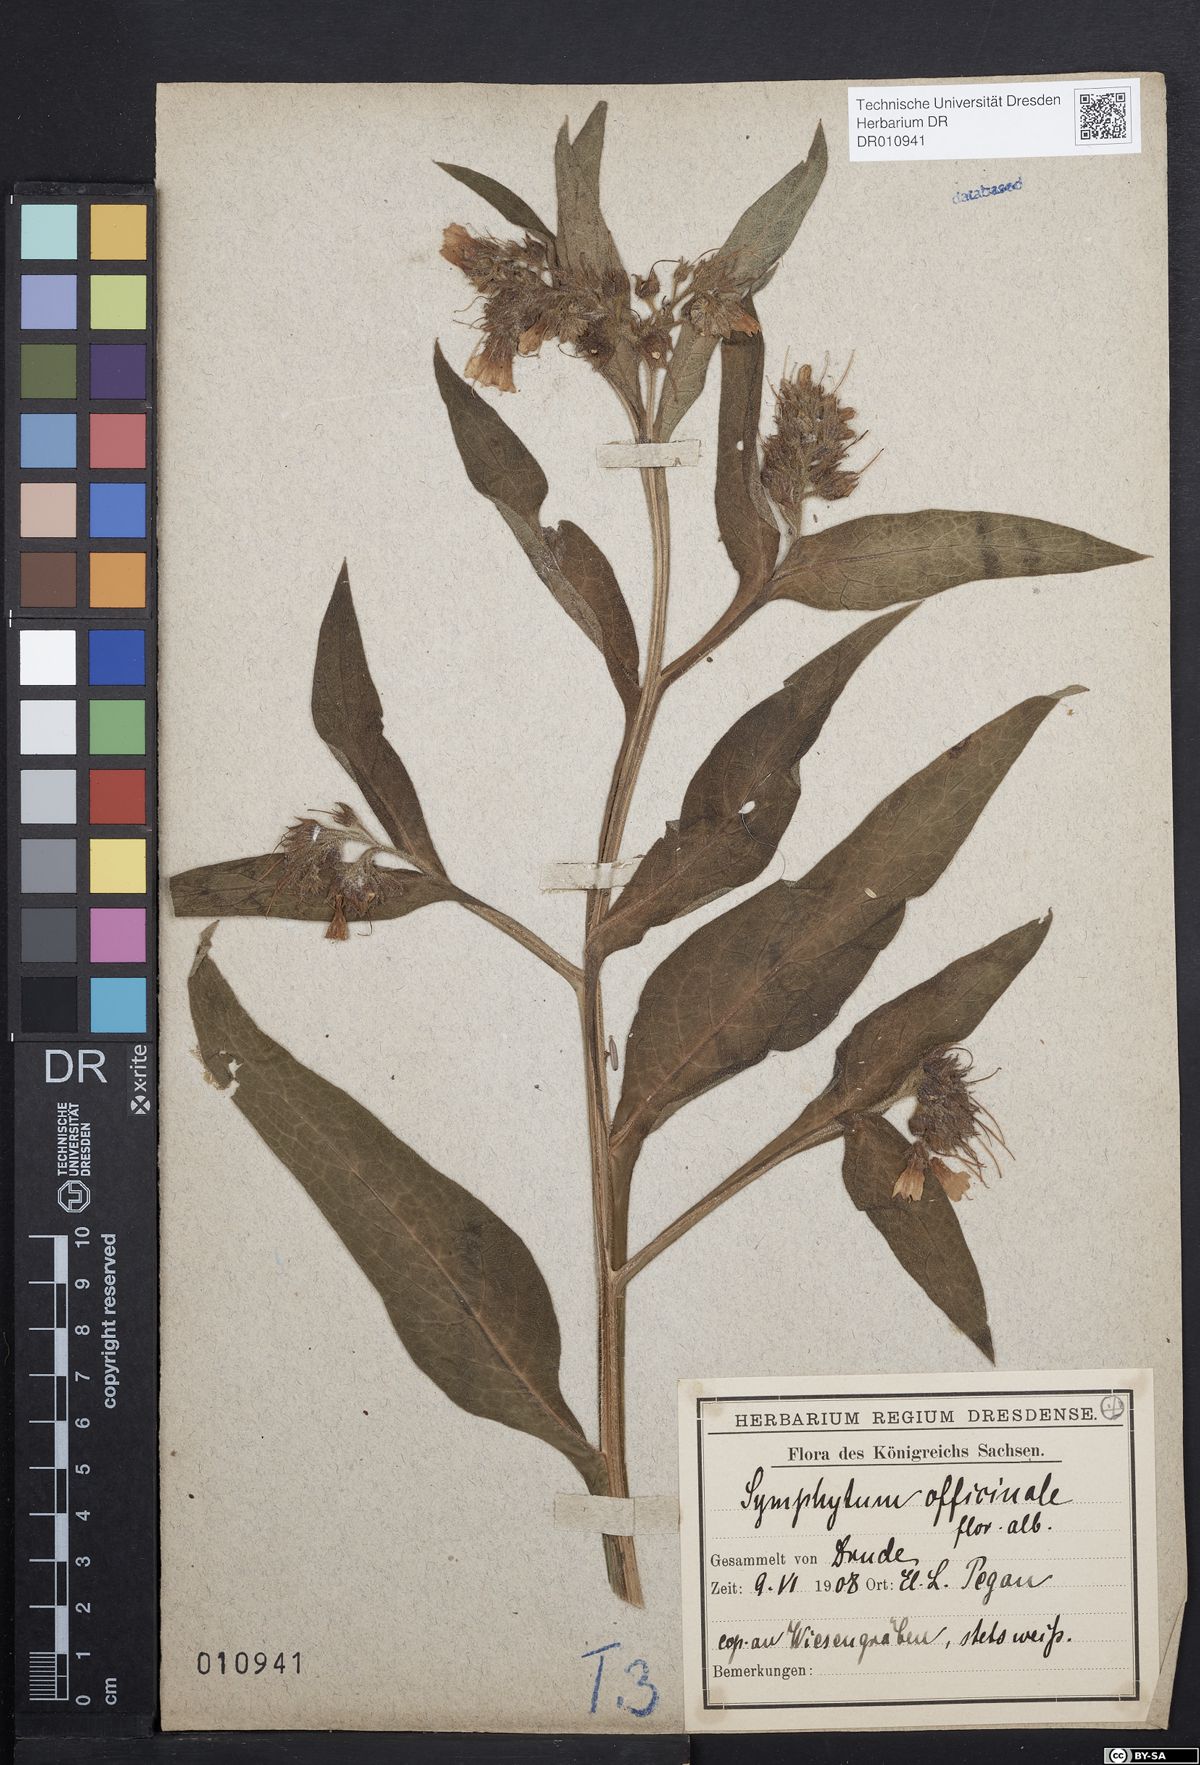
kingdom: Plantae
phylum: Tracheophyta
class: Magnoliopsida
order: Boraginales
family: Boraginaceae
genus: Symphytum
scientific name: Symphytum officinale
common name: Common comfrey
